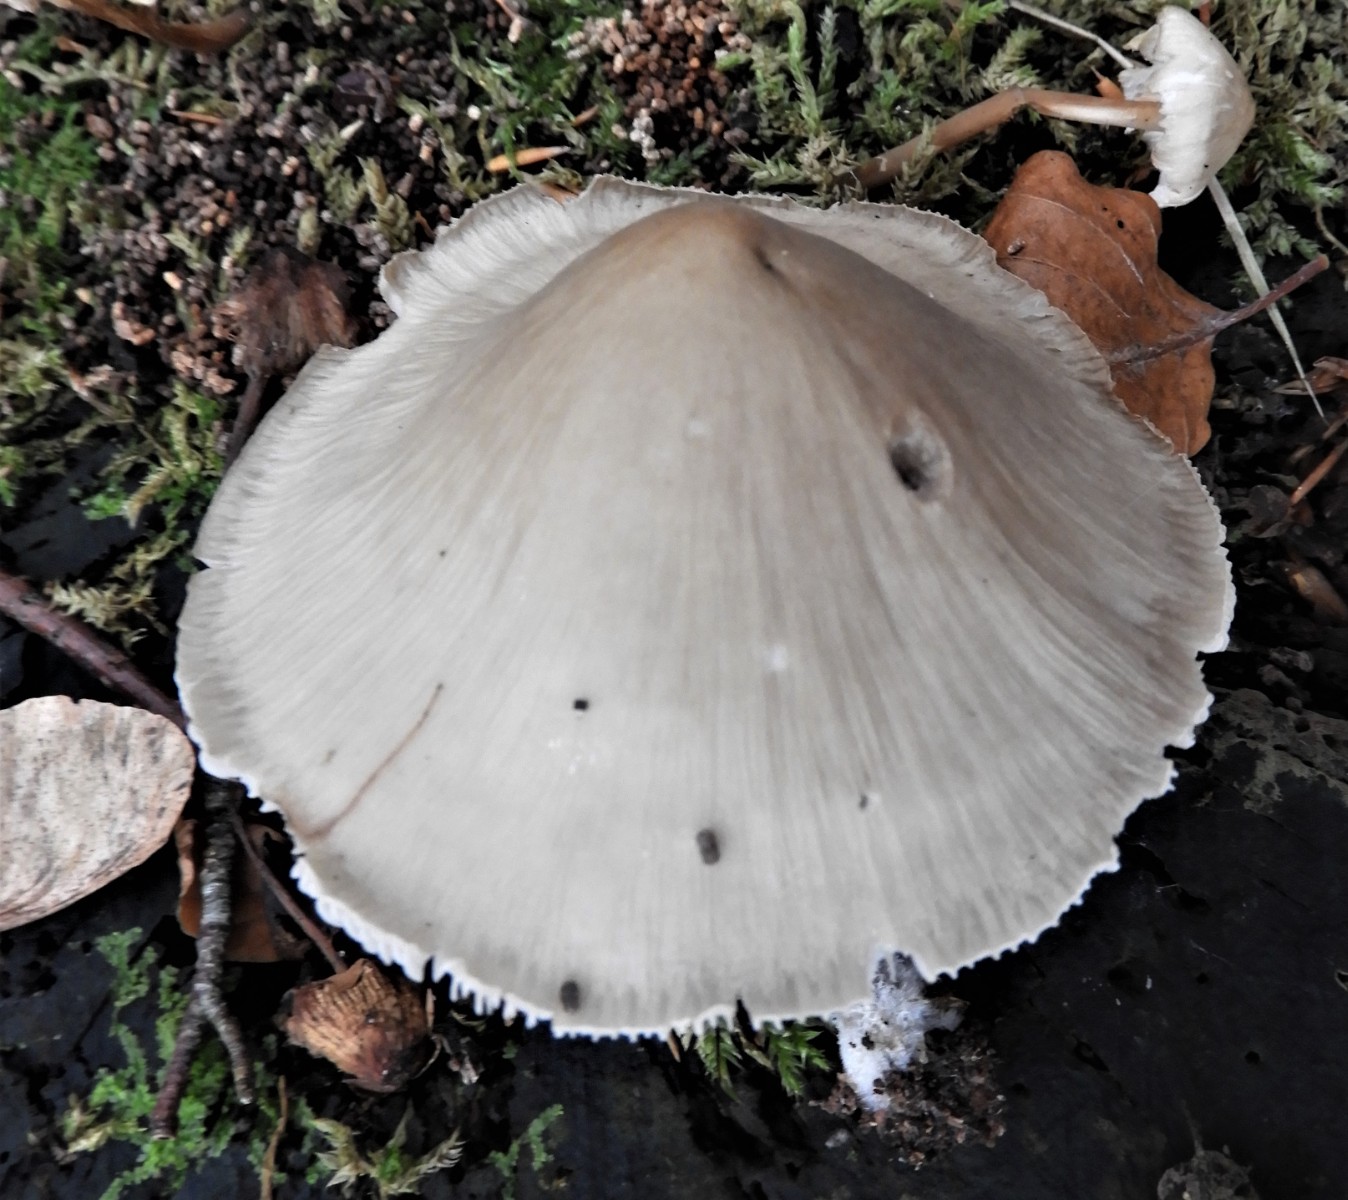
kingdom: Fungi
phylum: Basidiomycota
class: Agaricomycetes
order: Agaricales
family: Mycenaceae
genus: Mycena
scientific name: Mycena galericulata
